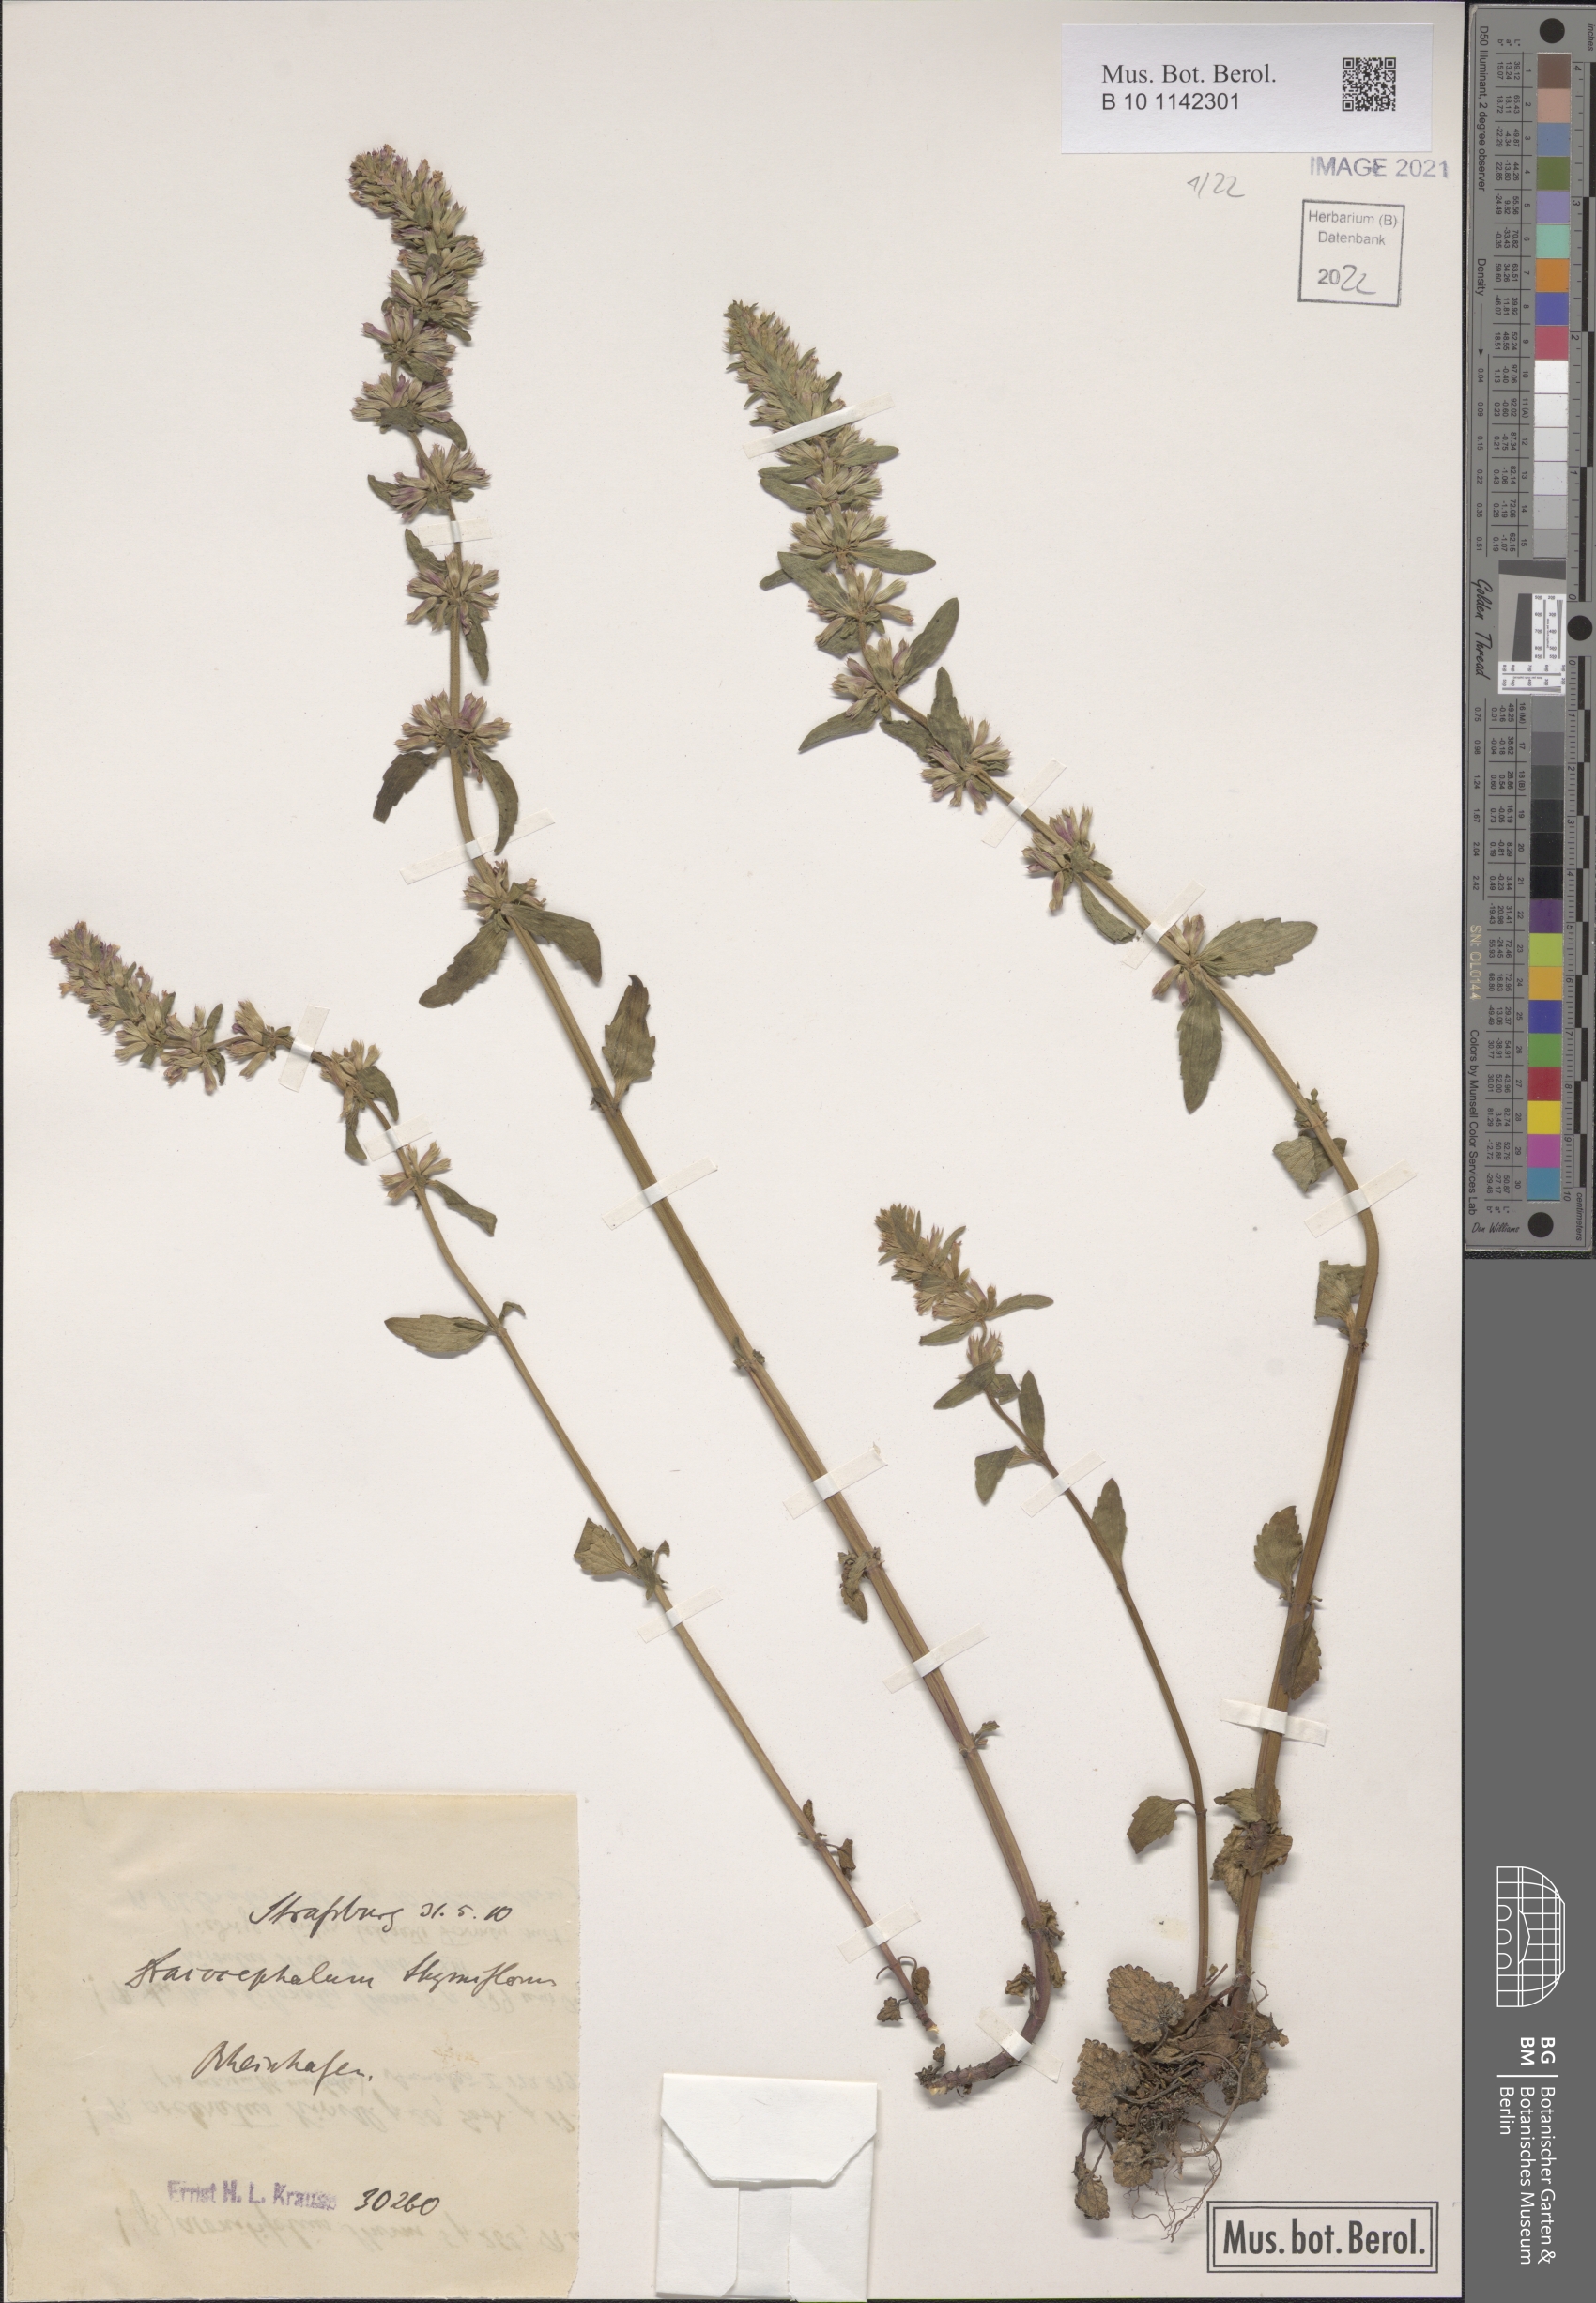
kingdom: Plantae
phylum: Tracheophyta
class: Magnoliopsida
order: Lamiales
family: Lamiaceae
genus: Dracocephalum
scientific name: Dracocephalum thymiflorum
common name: Thymeleaf dragonhead
